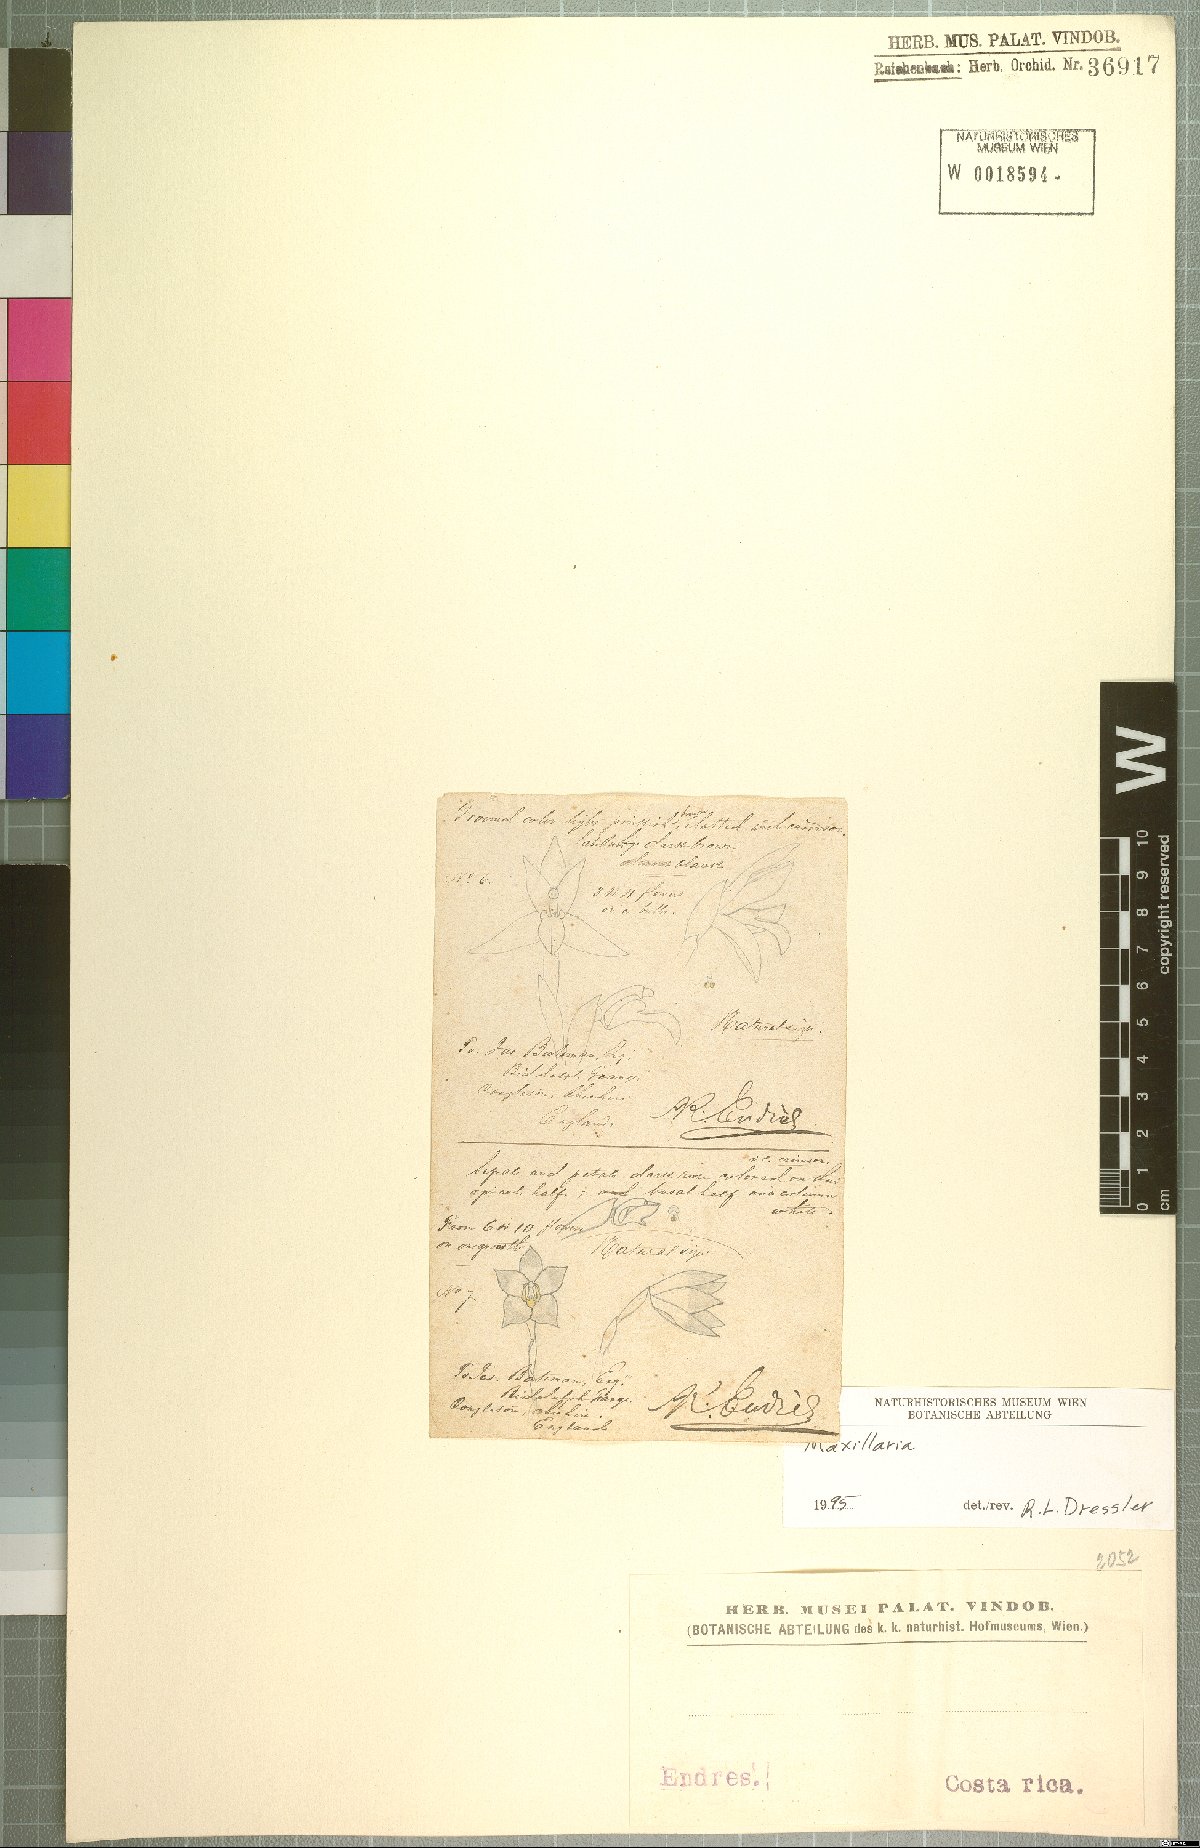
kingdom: Plantae
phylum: Tracheophyta
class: Liliopsida
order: Asparagales
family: Orchidaceae
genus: Maxillaria
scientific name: Maxillaria
